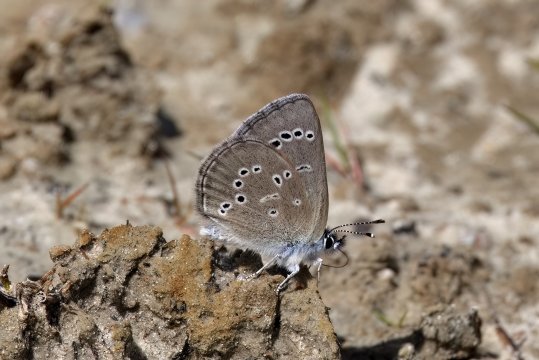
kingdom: Animalia
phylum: Arthropoda
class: Insecta
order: Lepidoptera
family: Lycaenidae
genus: Glaucopsyche
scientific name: Glaucopsyche lygdamus
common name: Silvery Blue
